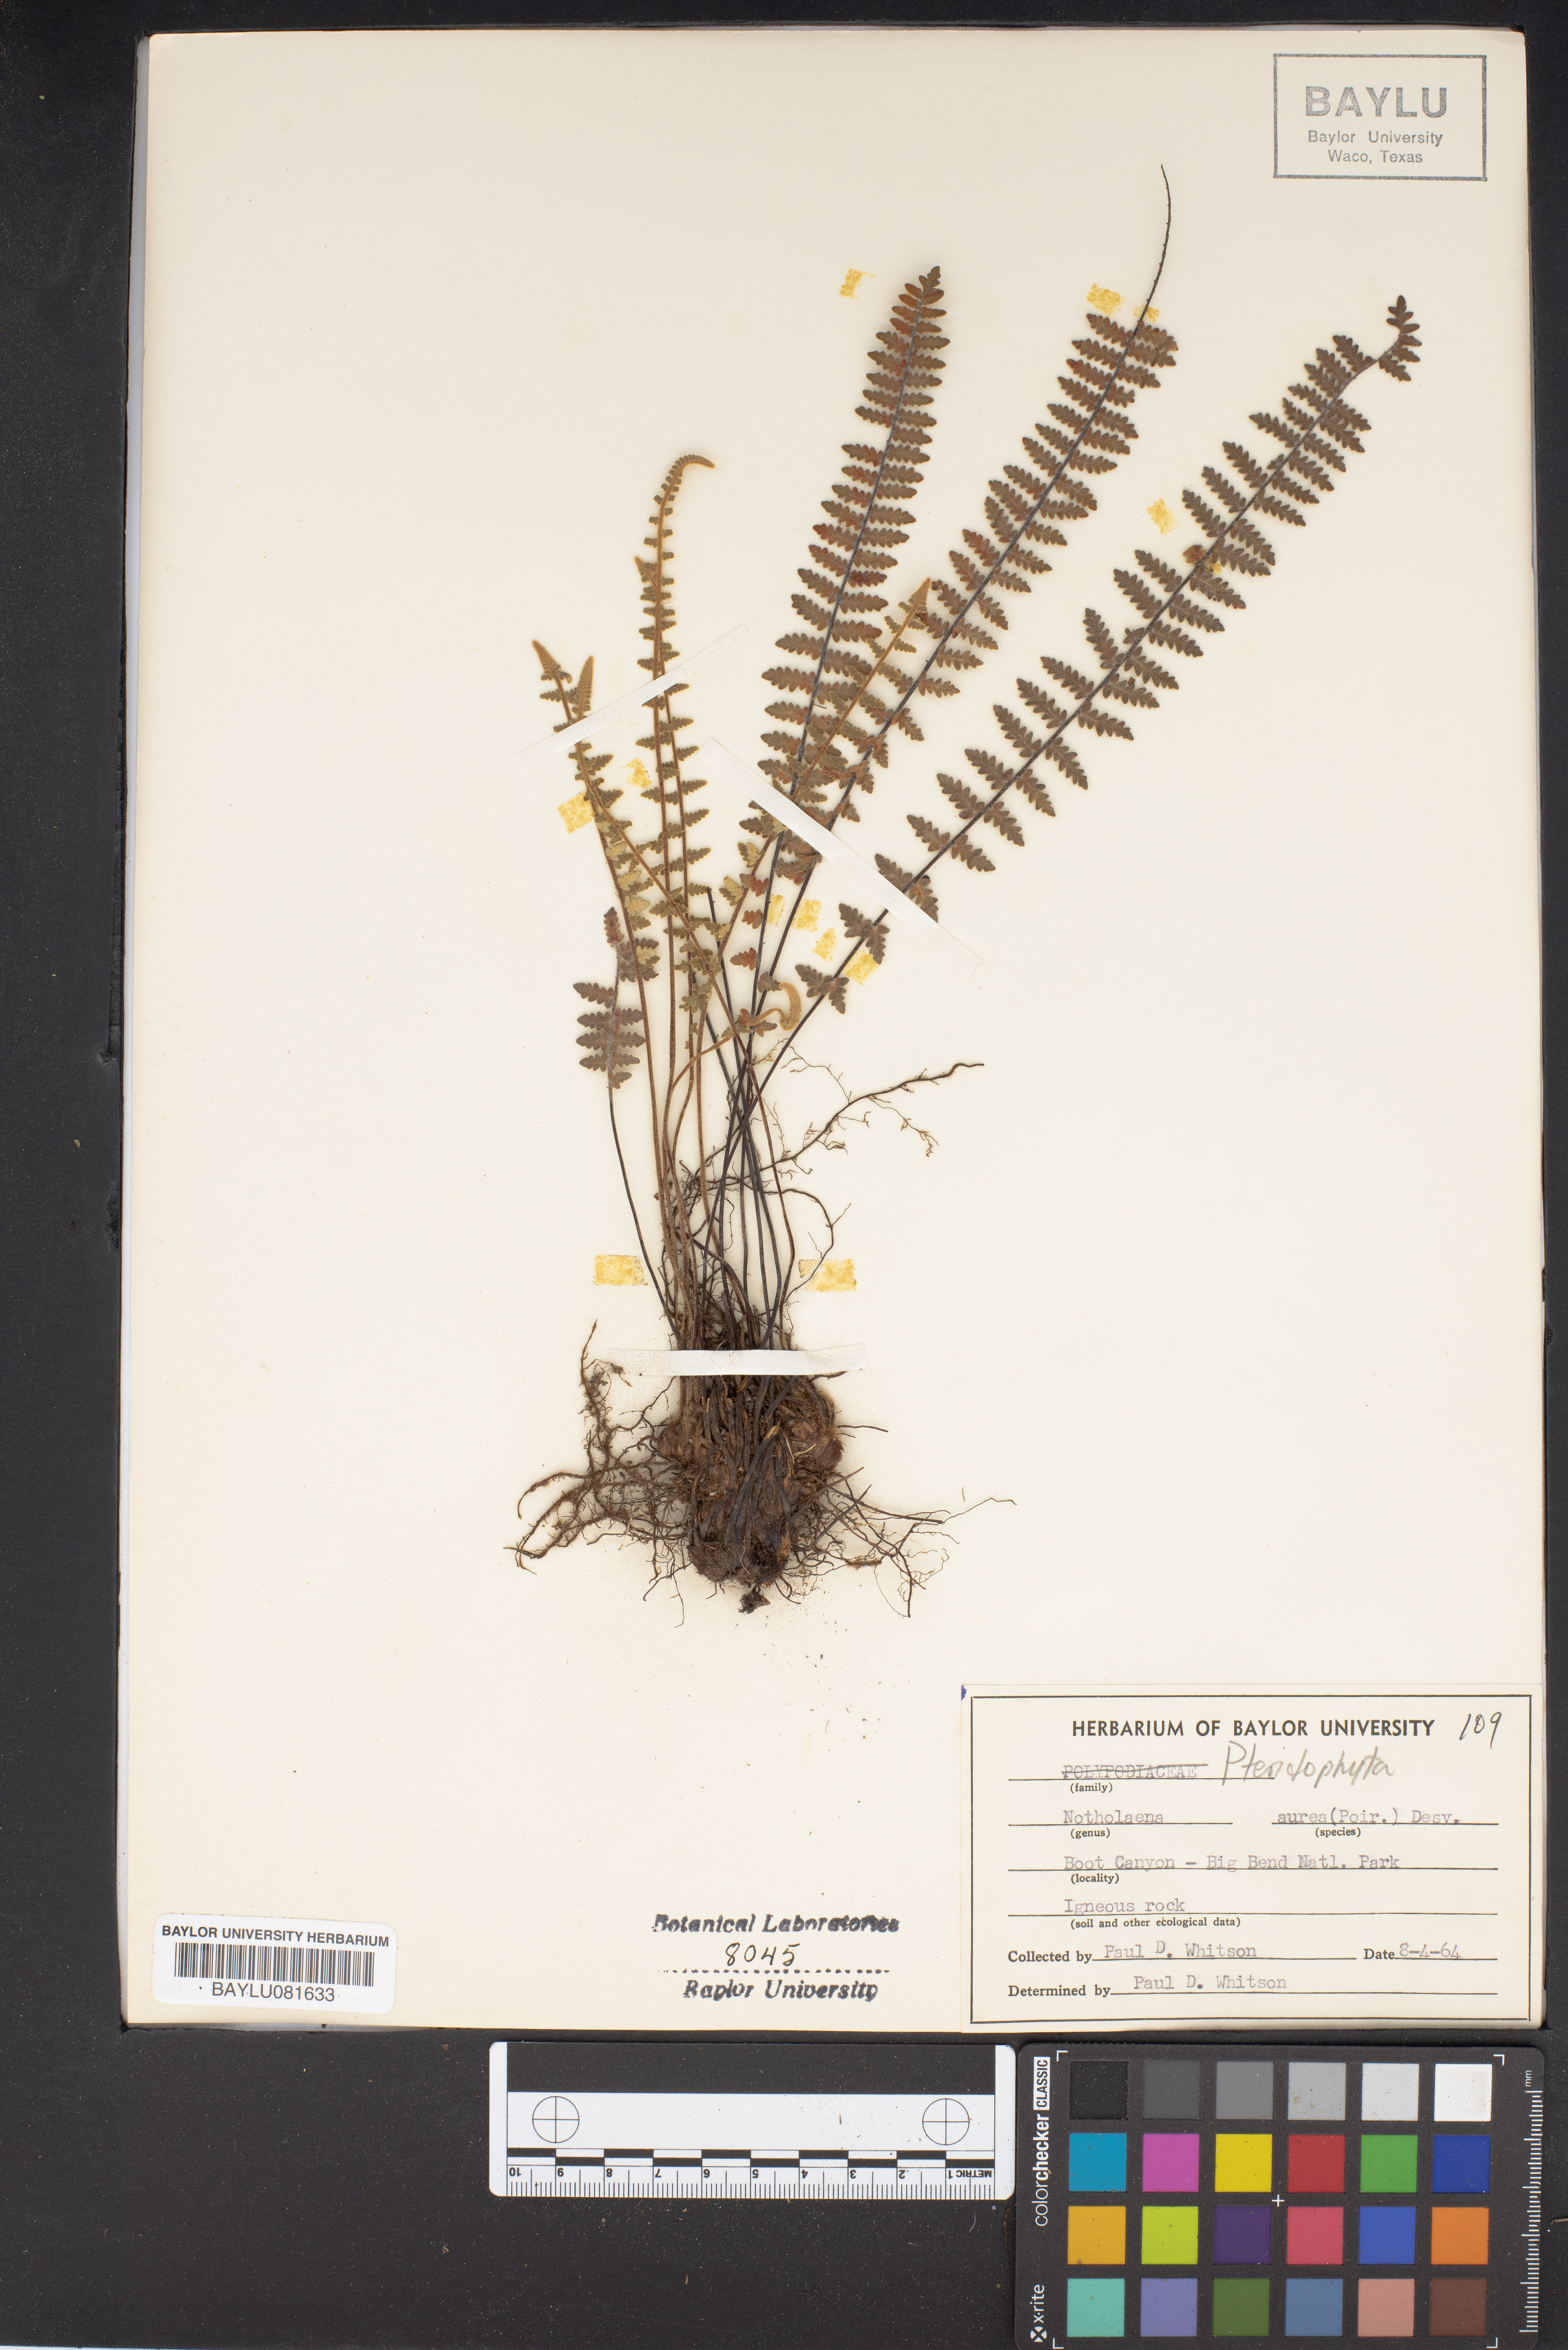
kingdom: Plantae
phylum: Tracheophyta
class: Polypodiopsida
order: Polypodiales
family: Pteridaceae
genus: Myriopteris
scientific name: Myriopteris aurea
